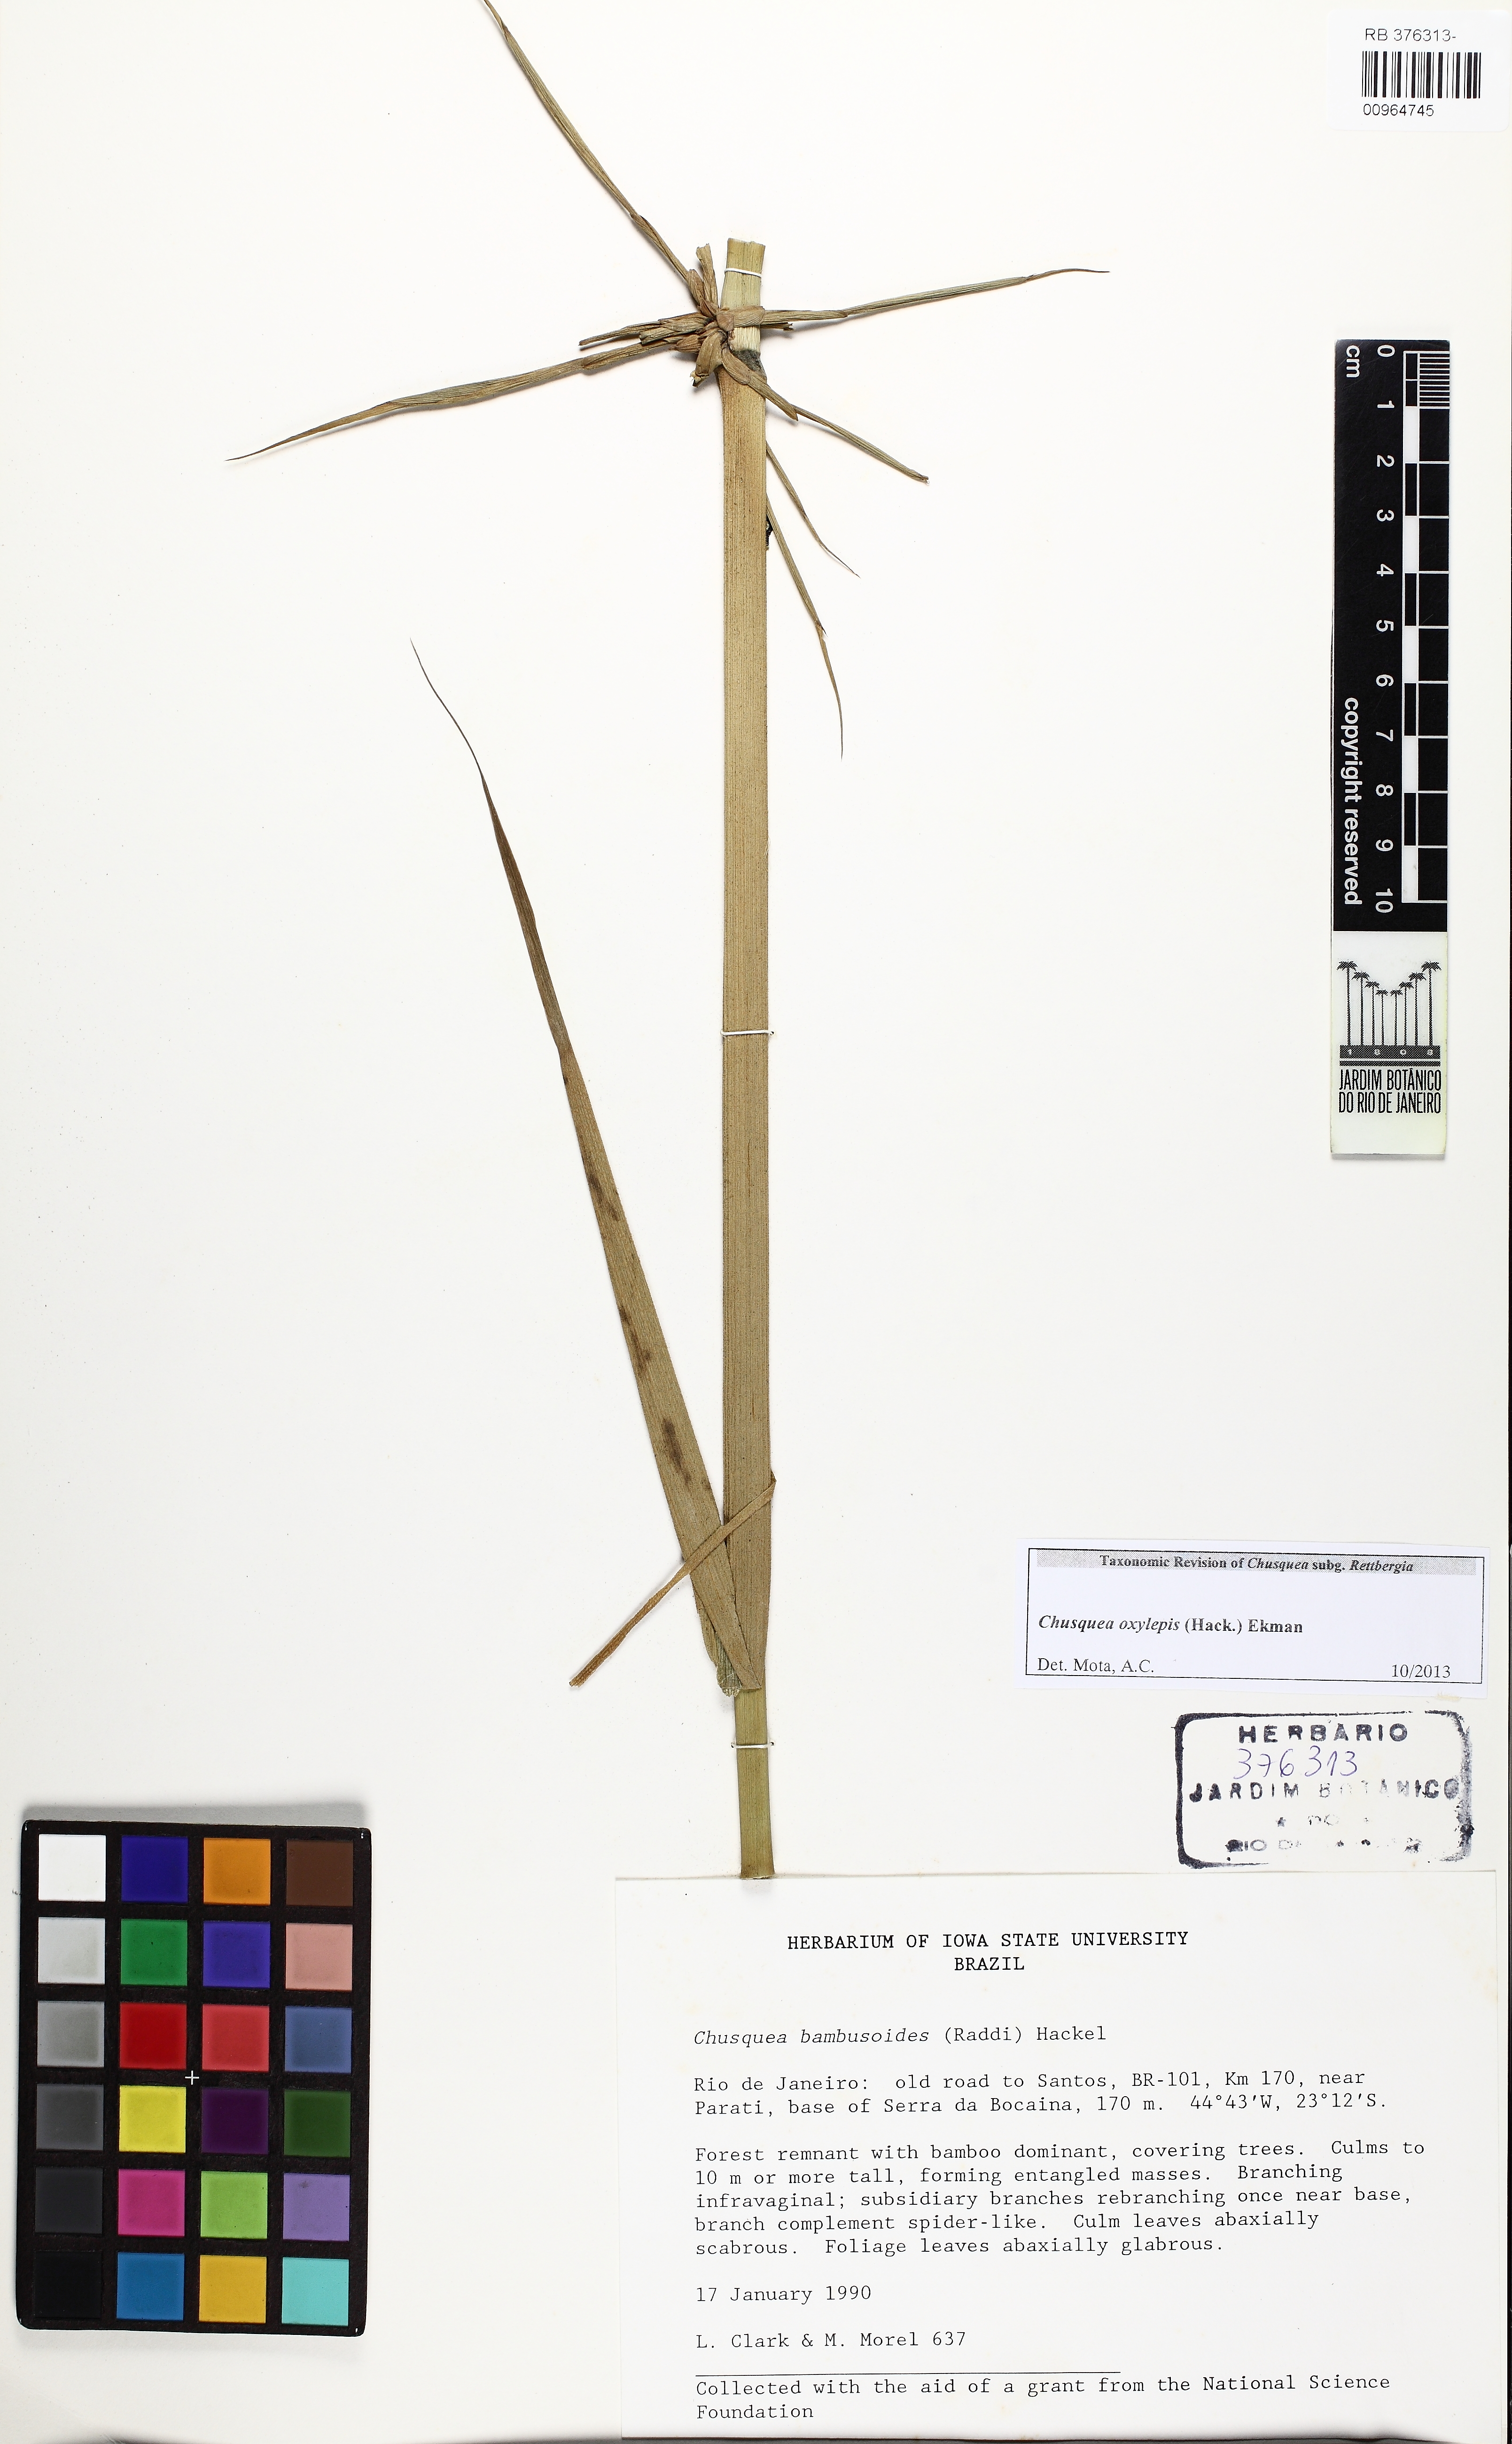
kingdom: Plantae
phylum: Tracheophyta
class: Liliopsida
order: Poales
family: Poaceae
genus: Chusquea
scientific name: Chusquea oxylepis
